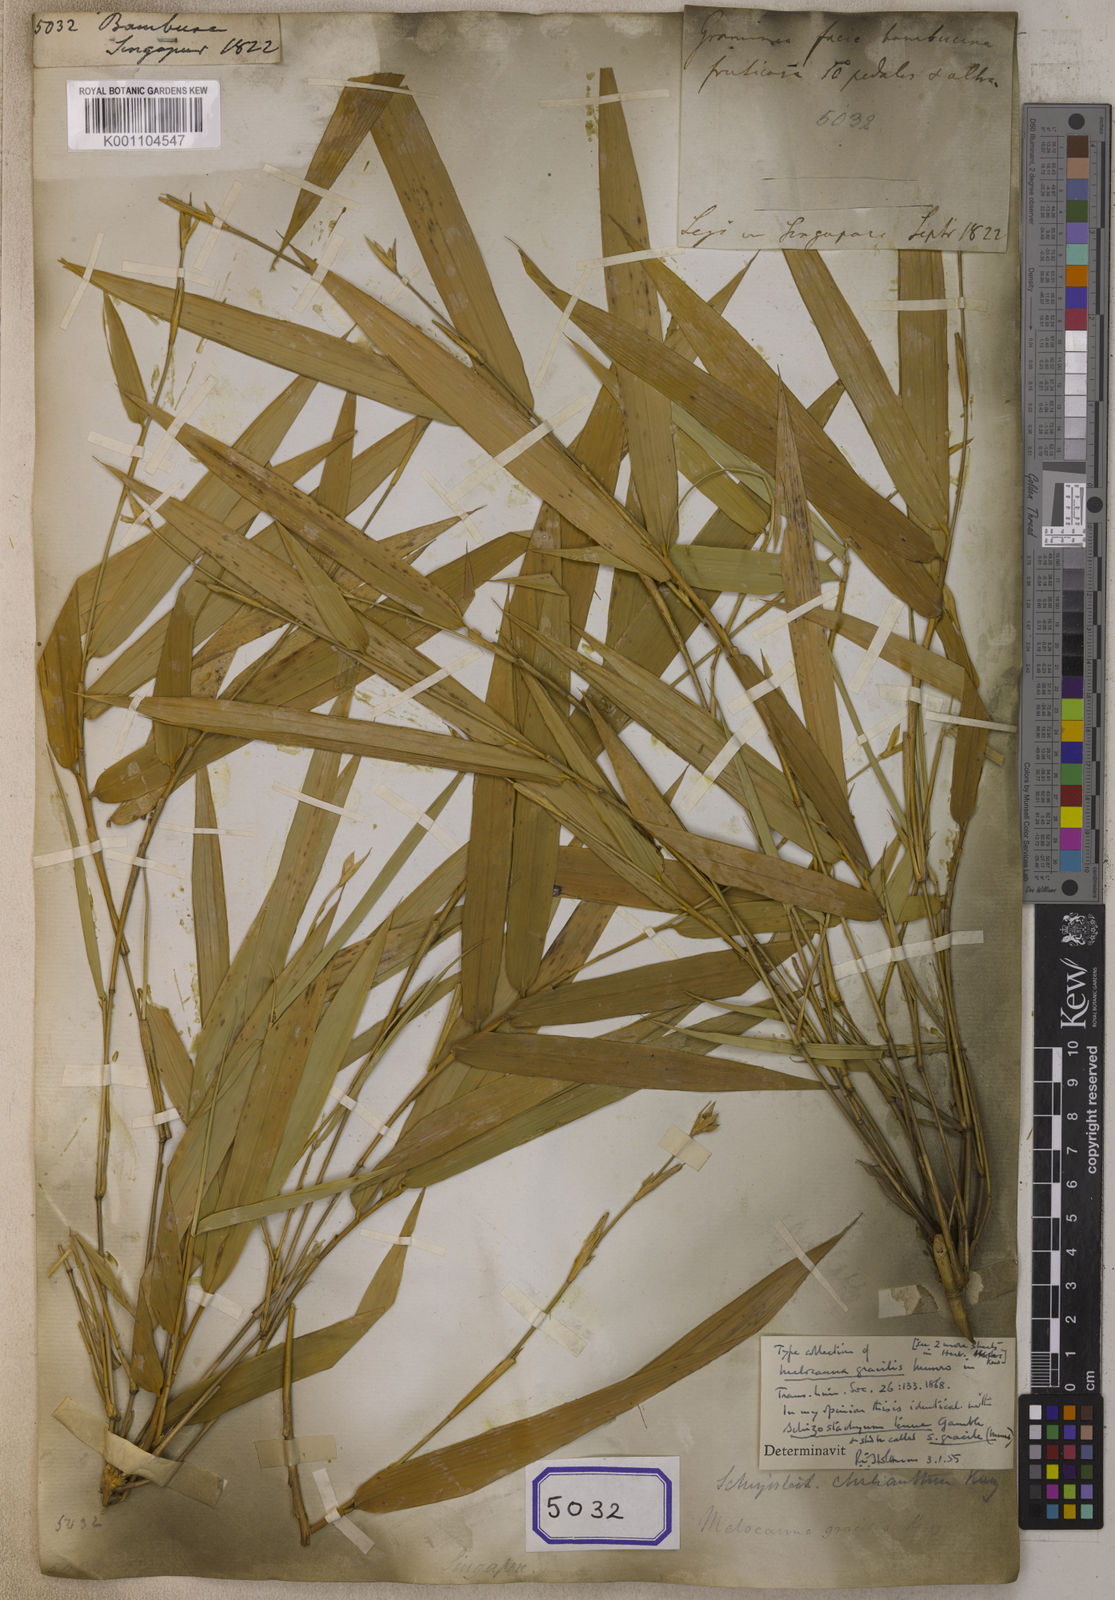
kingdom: Plantae
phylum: Tracheophyta
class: Liliopsida
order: Poales
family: Poaceae
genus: Bambusa
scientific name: Bambusa
